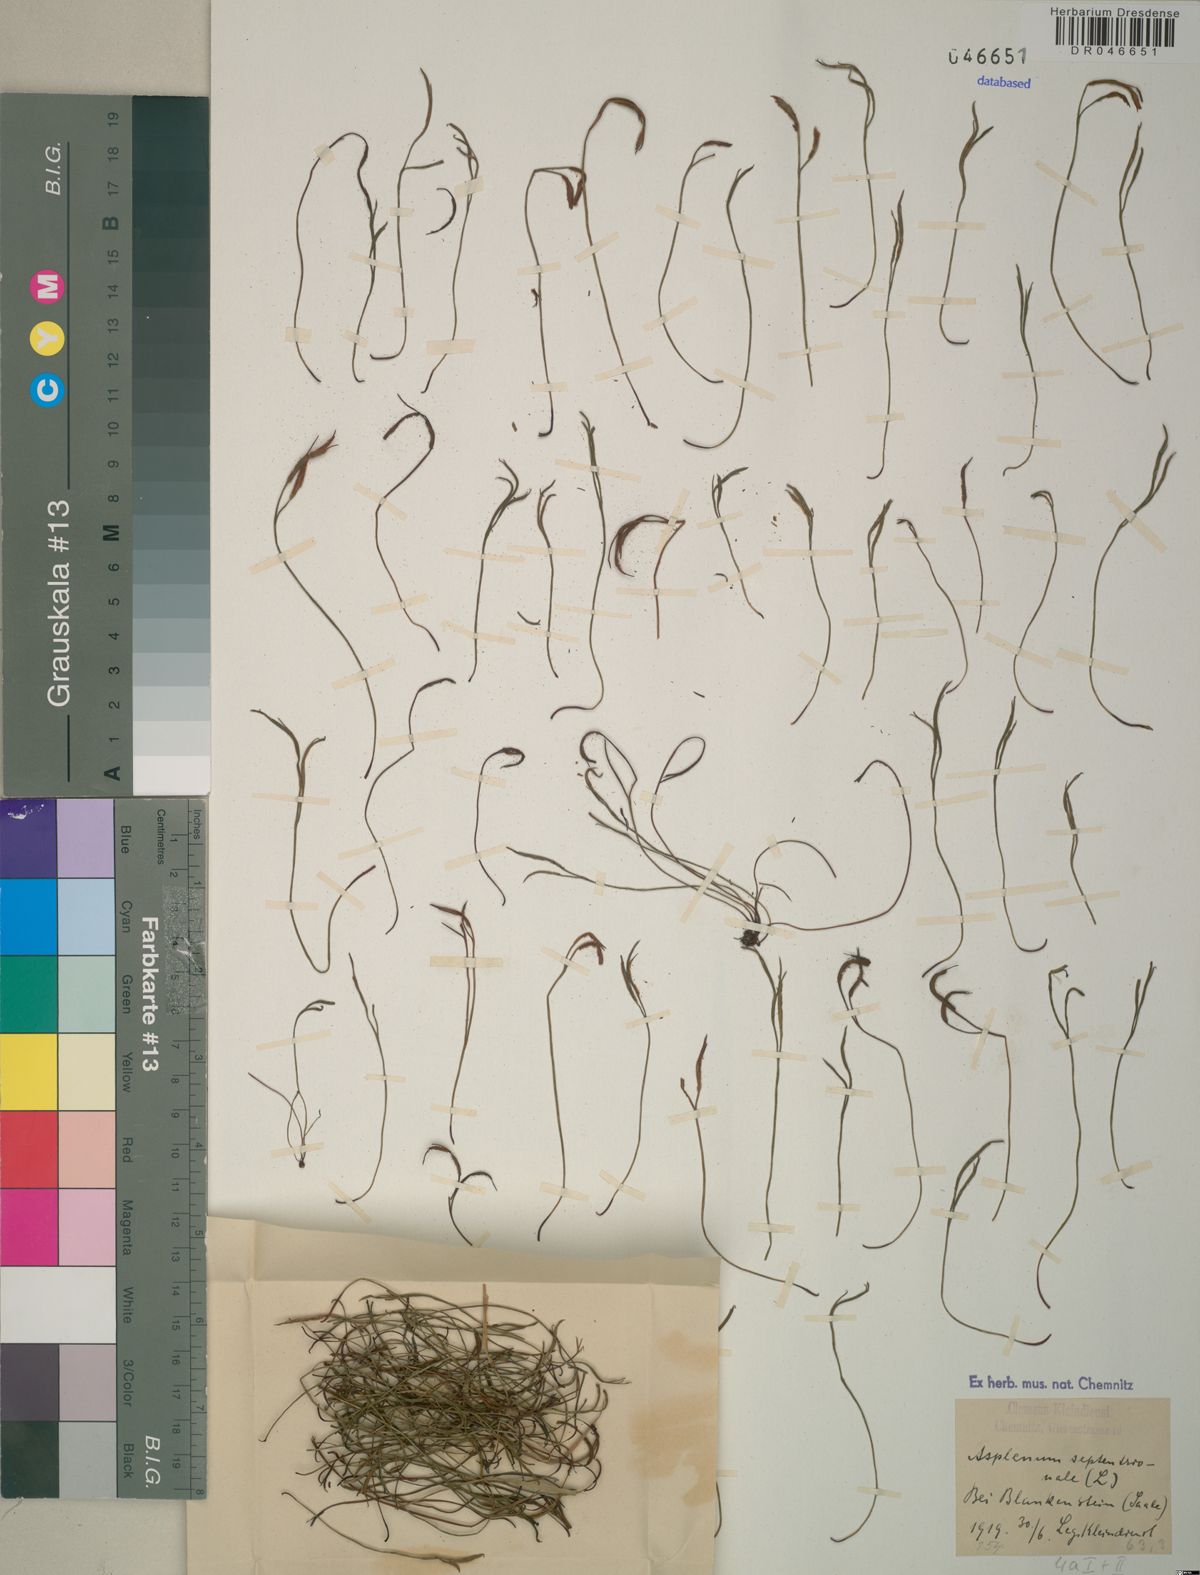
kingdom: Plantae
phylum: Tracheophyta
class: Polypodiopsida
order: Polypodiales
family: Aspleniaceae
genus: Asplenium
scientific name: Asplenium septentrionale
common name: Forked spleenwort
